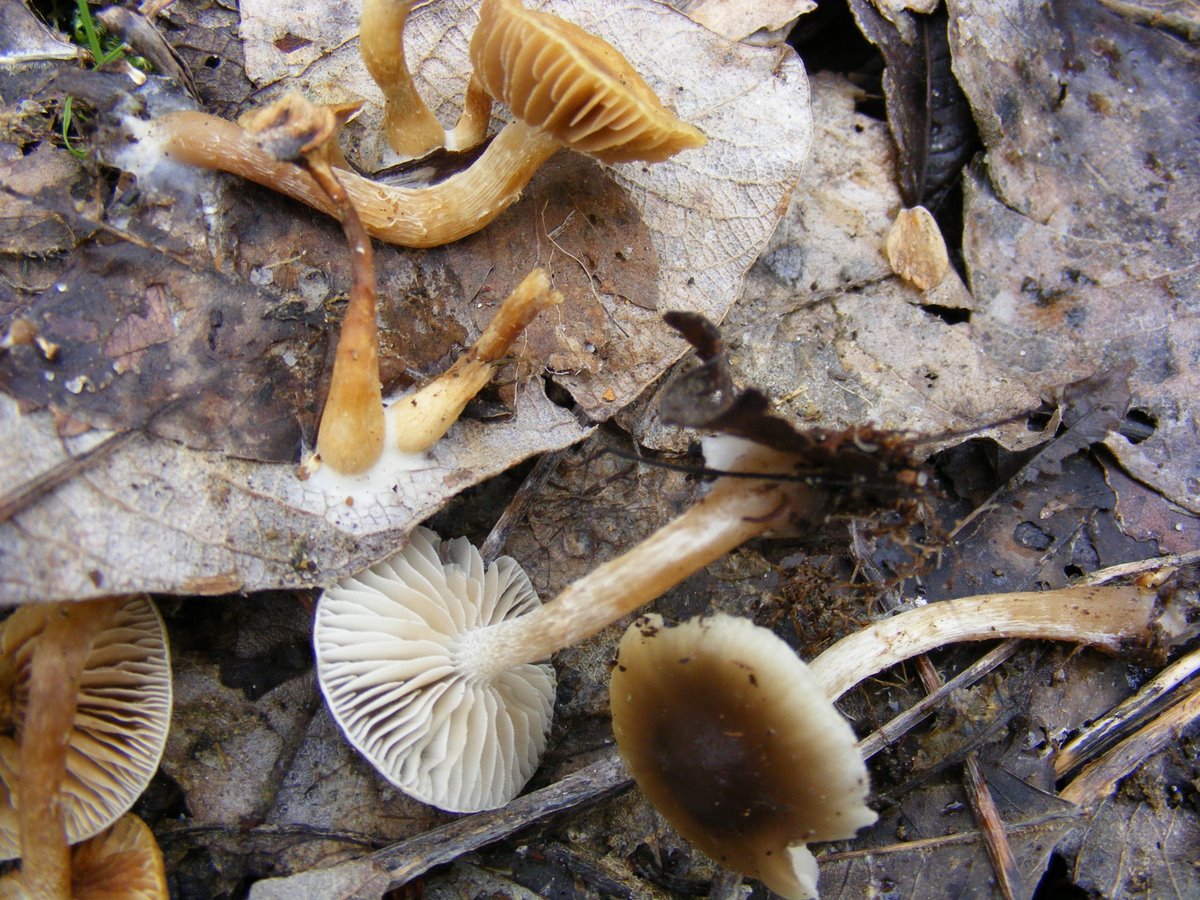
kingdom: Fungi
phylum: Basidiomycota
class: Agaricomycetes
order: Agaricales
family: Strophariaceae
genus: Meottomyces
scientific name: Meottomyces dissimulans
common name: smudsigbrun vinterskælhat
